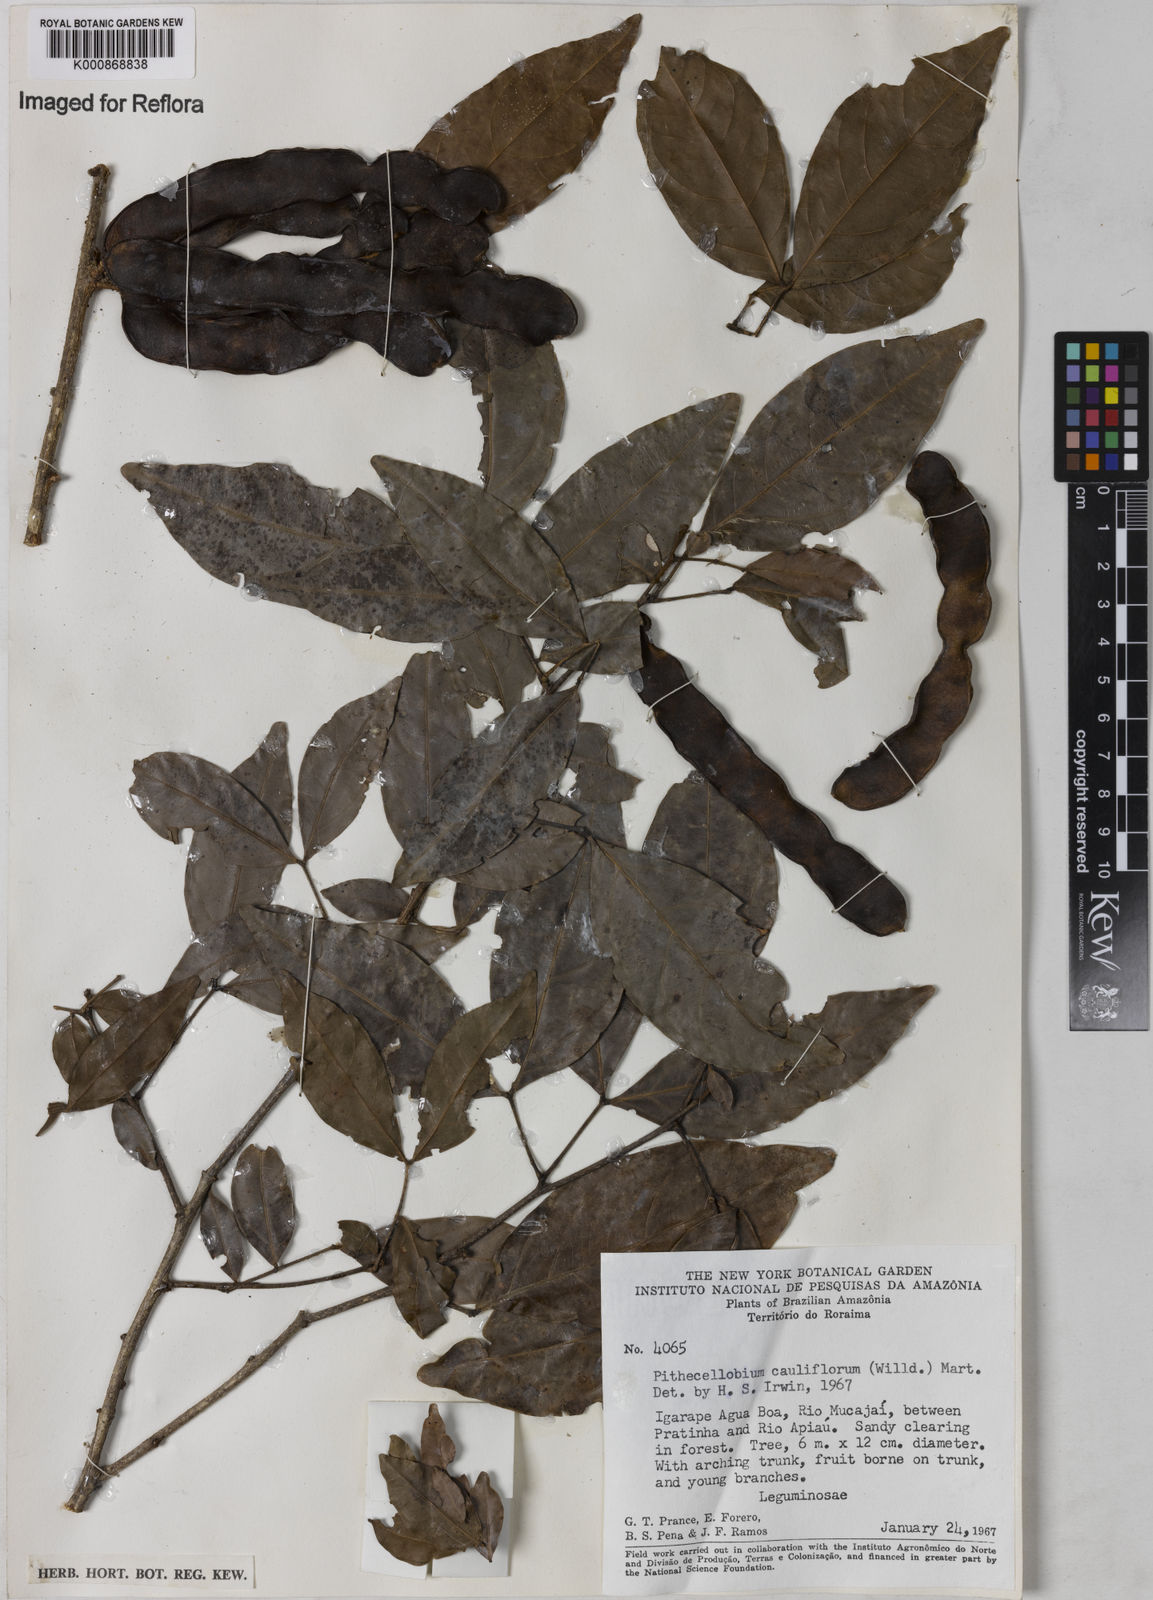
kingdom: Plantae
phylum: Tracheophyta
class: Magnoliopsida
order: Fabales
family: Fabaceae
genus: Zygia
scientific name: Zygia
